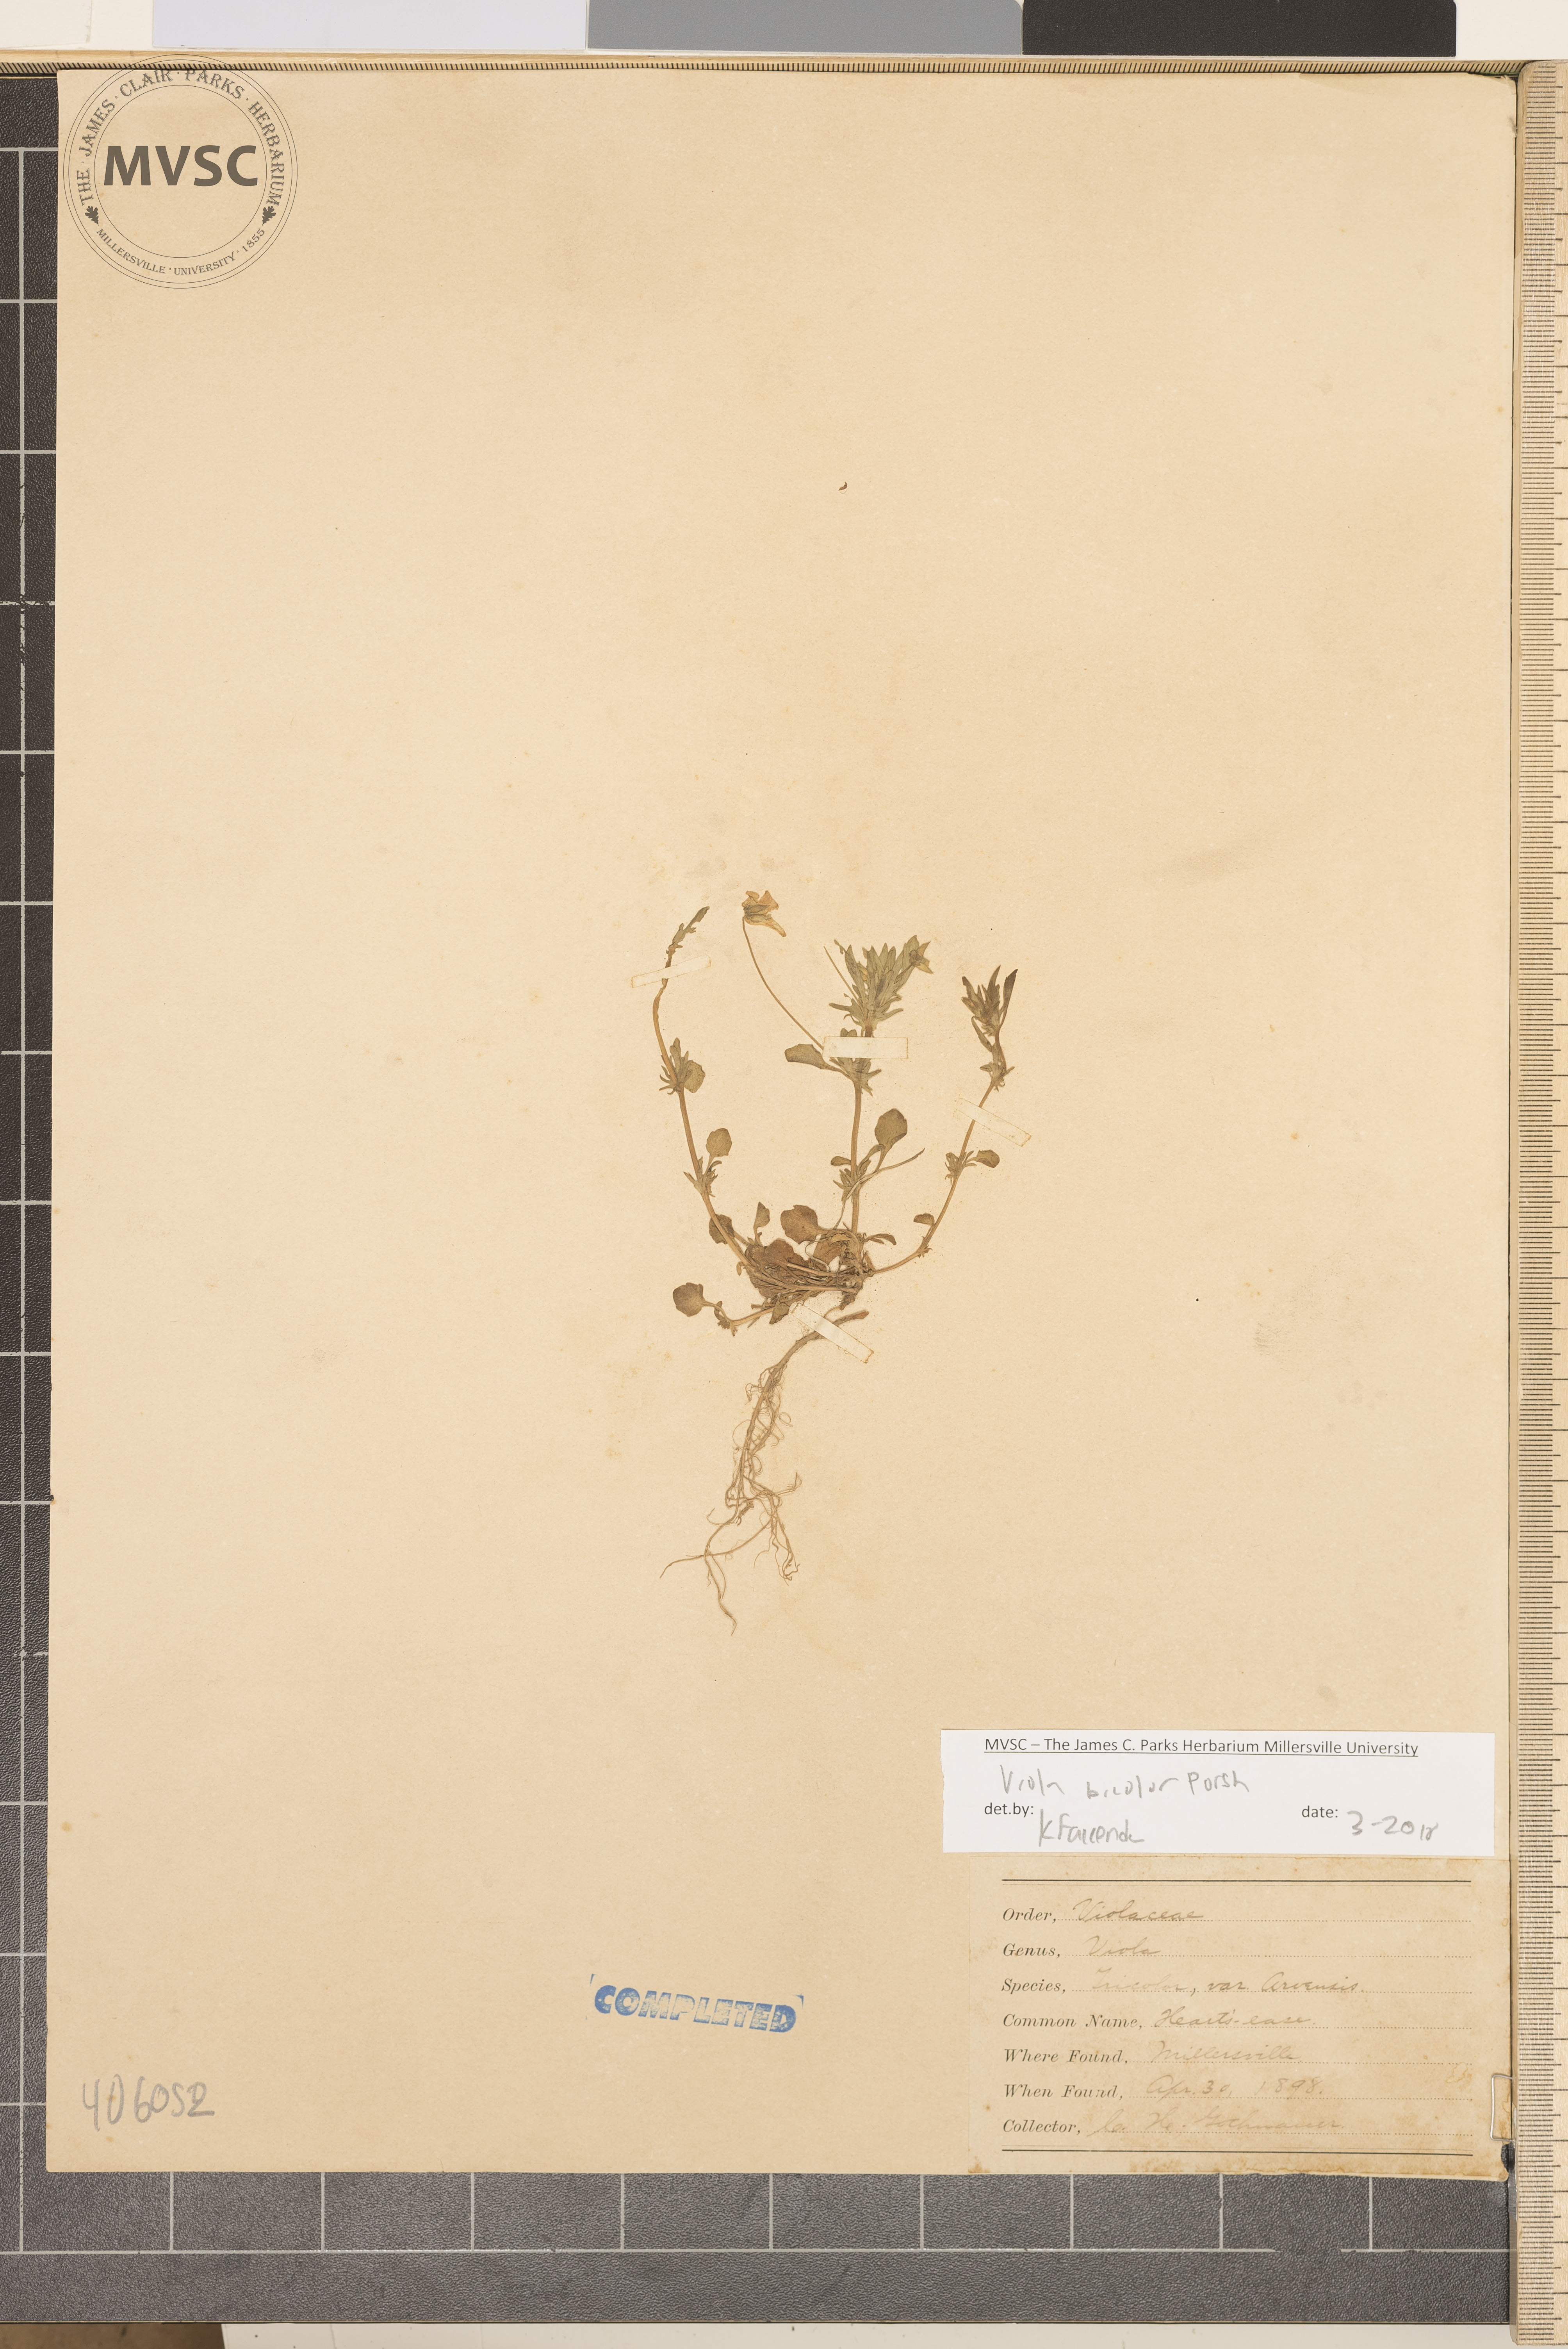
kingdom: Plantae
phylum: Tracheophyta
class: Magnoliopsida
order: Malpighiales
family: Violaceae
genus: Viola
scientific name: Viola rafinesquei
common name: American field pansy
